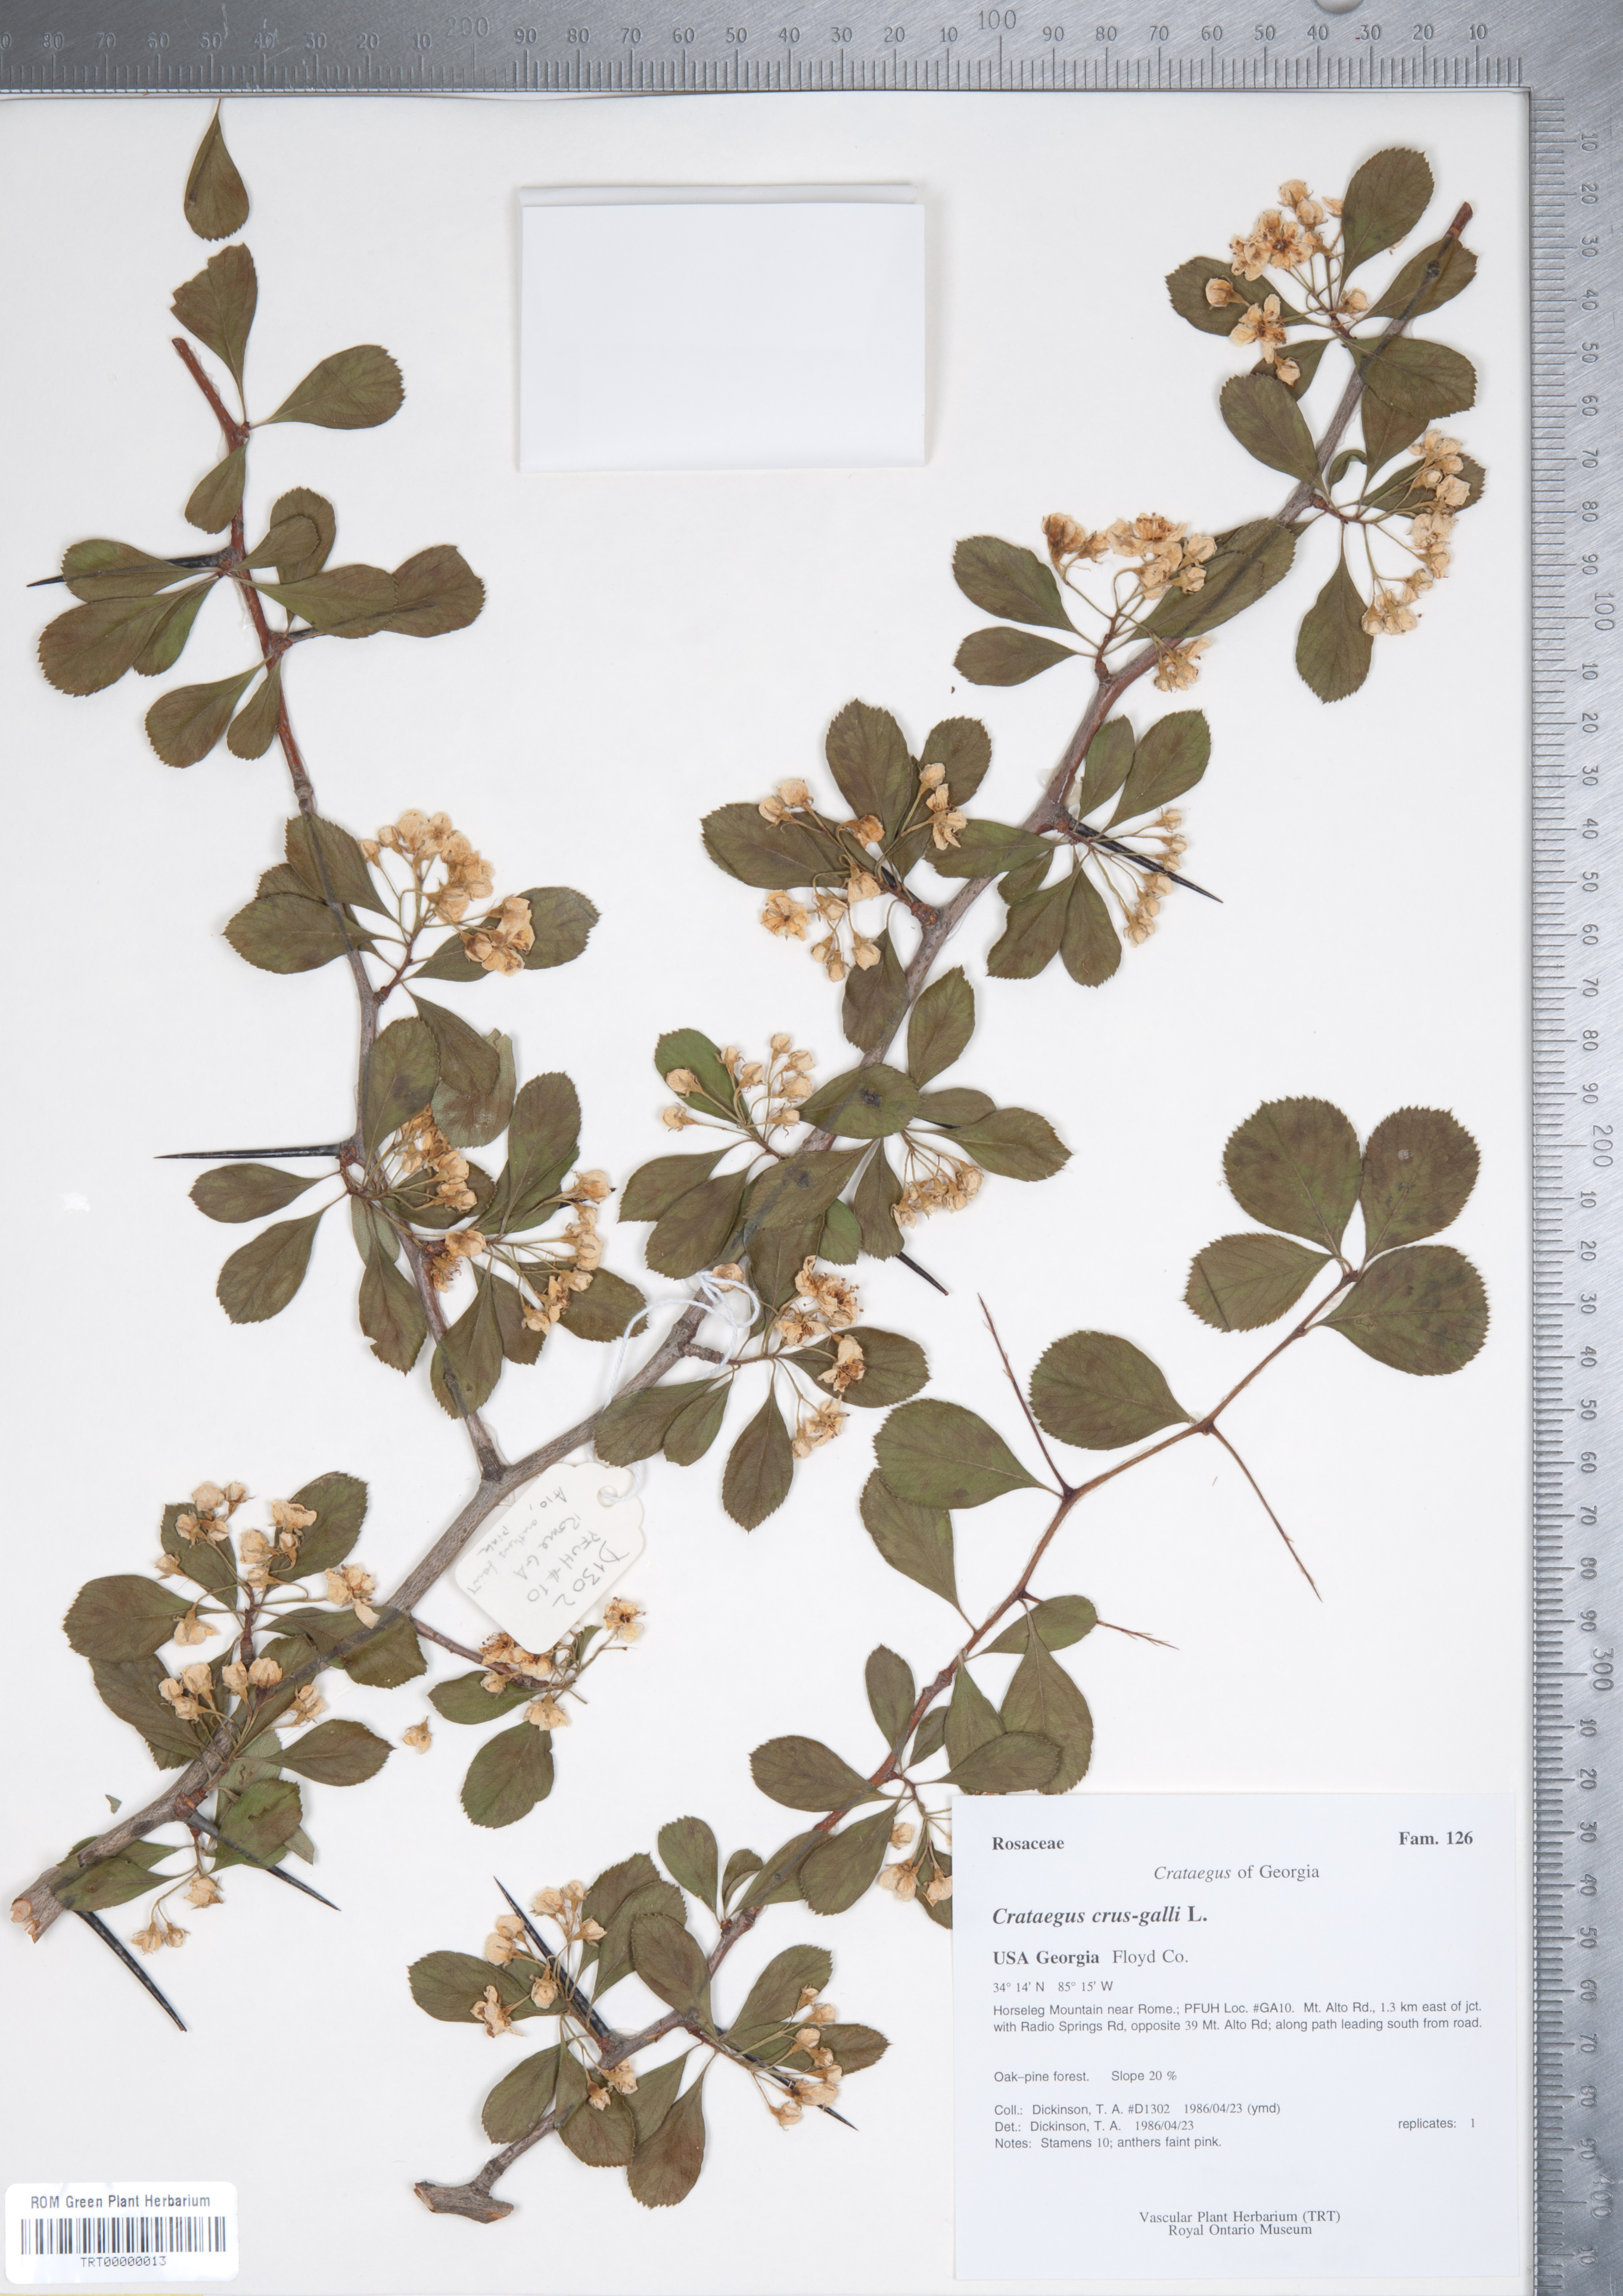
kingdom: Plantae
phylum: Tracheophyta
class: Magnoliopsida
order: Rosales
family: Rosaceae
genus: Crataegus
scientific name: Crataegus crus-galli
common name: Cockspurthorn
